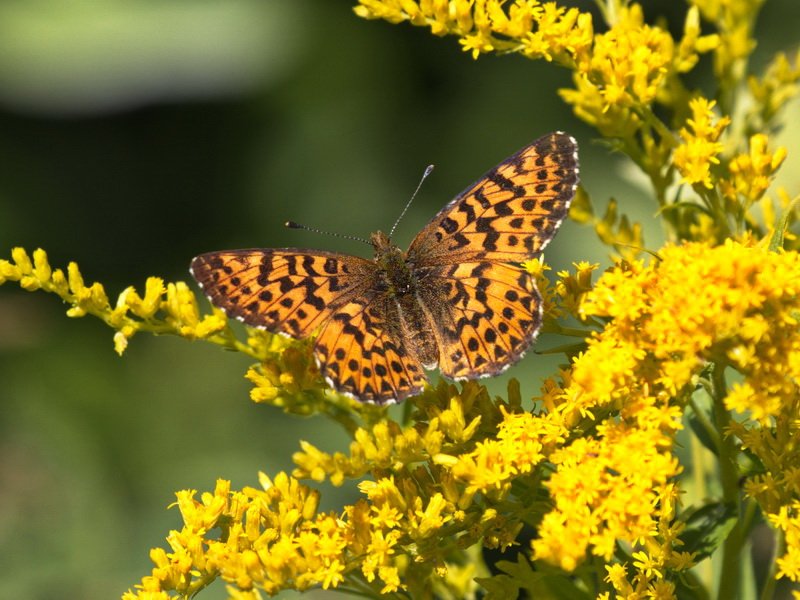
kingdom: Animalia
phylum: Arthropoda
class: Insecta
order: Lepidoptera
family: Nymphalidae
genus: Boloria
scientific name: Boloria chariclea
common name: Arctic Fritillary
